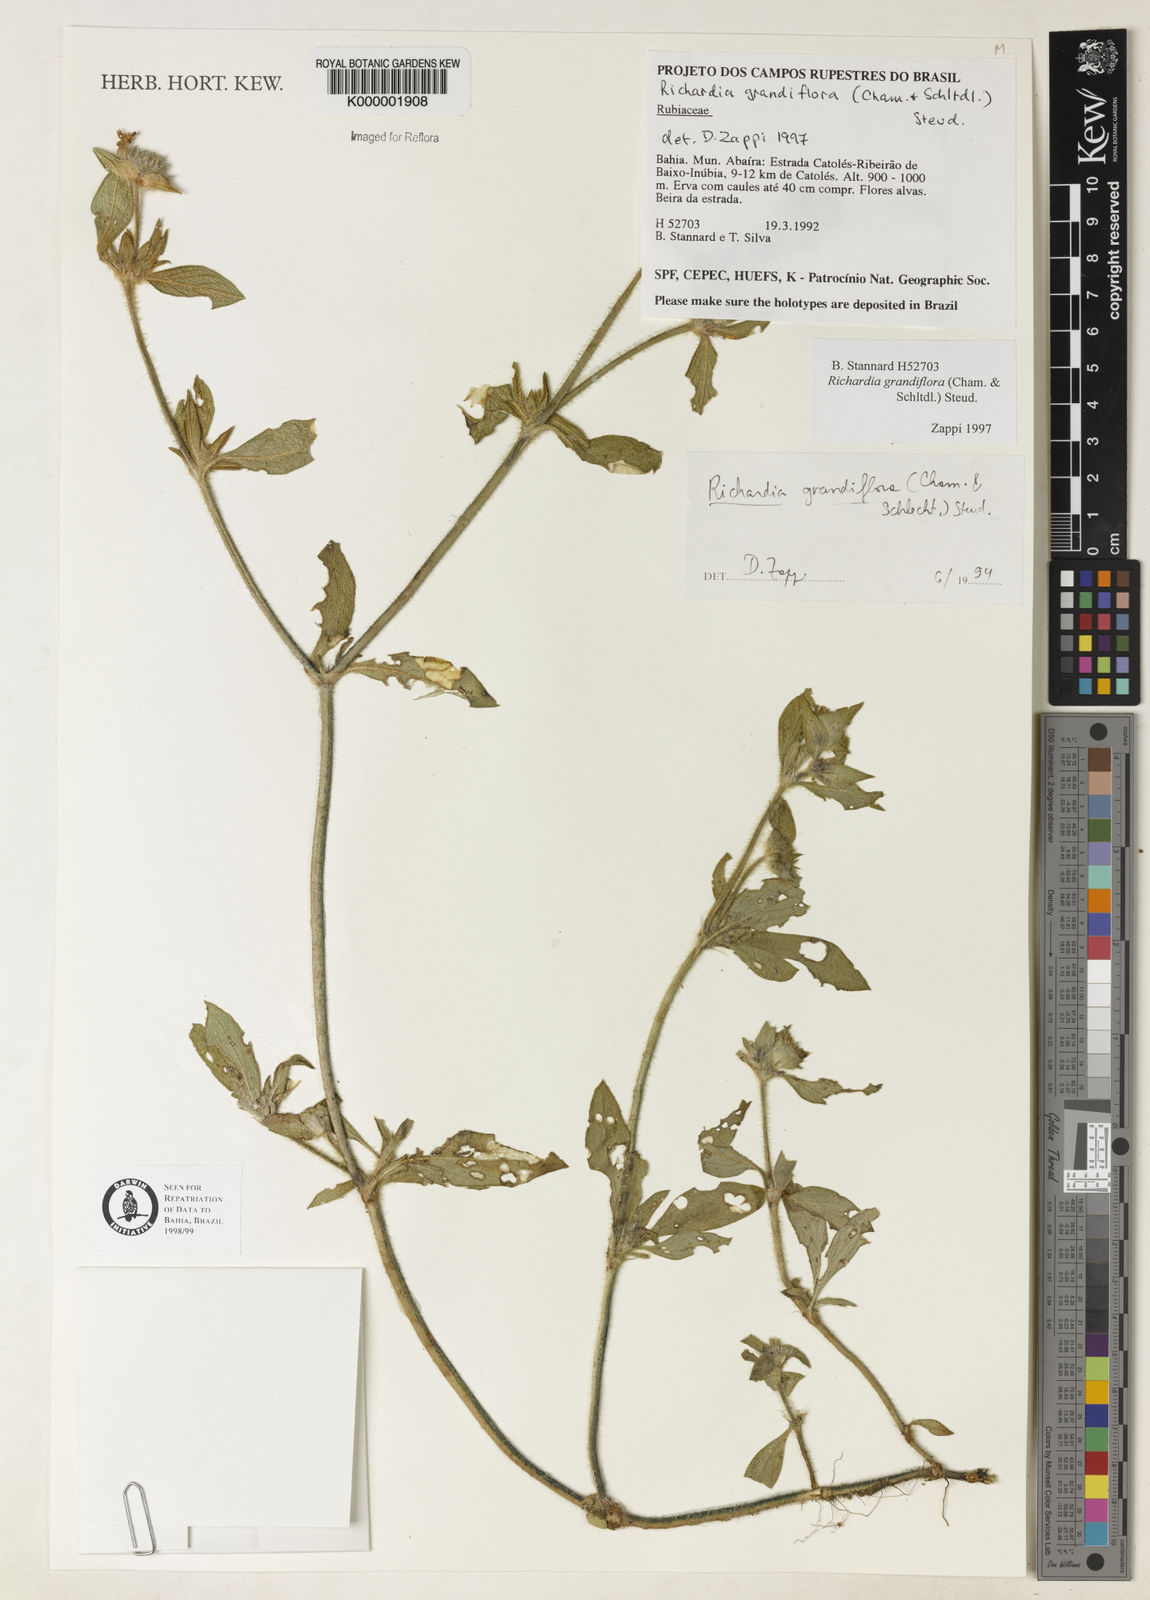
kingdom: Plantae
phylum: Tracheophyta
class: Magnoliopsida
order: Gentianales
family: Rubiaceae
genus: Richardia
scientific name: Richardia grandiflora
